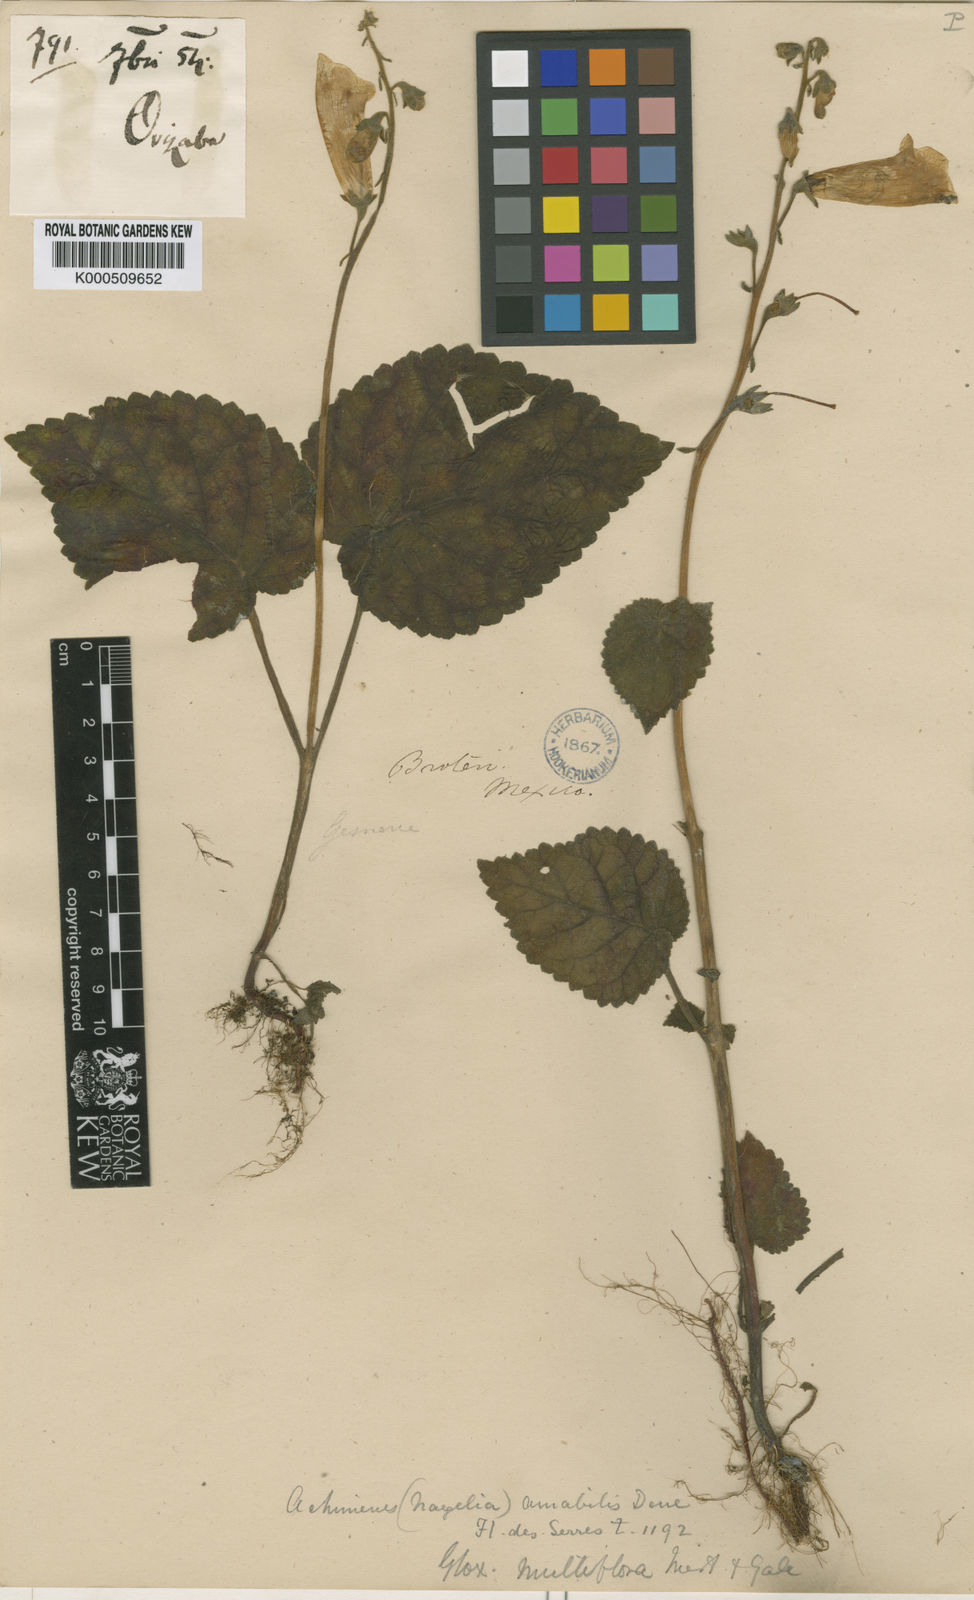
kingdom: Plantae
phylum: Tracheophyta
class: Magnoliopsida
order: Lamiales
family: Gesneriaceae
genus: Smithiantha
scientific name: Smithiantha multiflora
